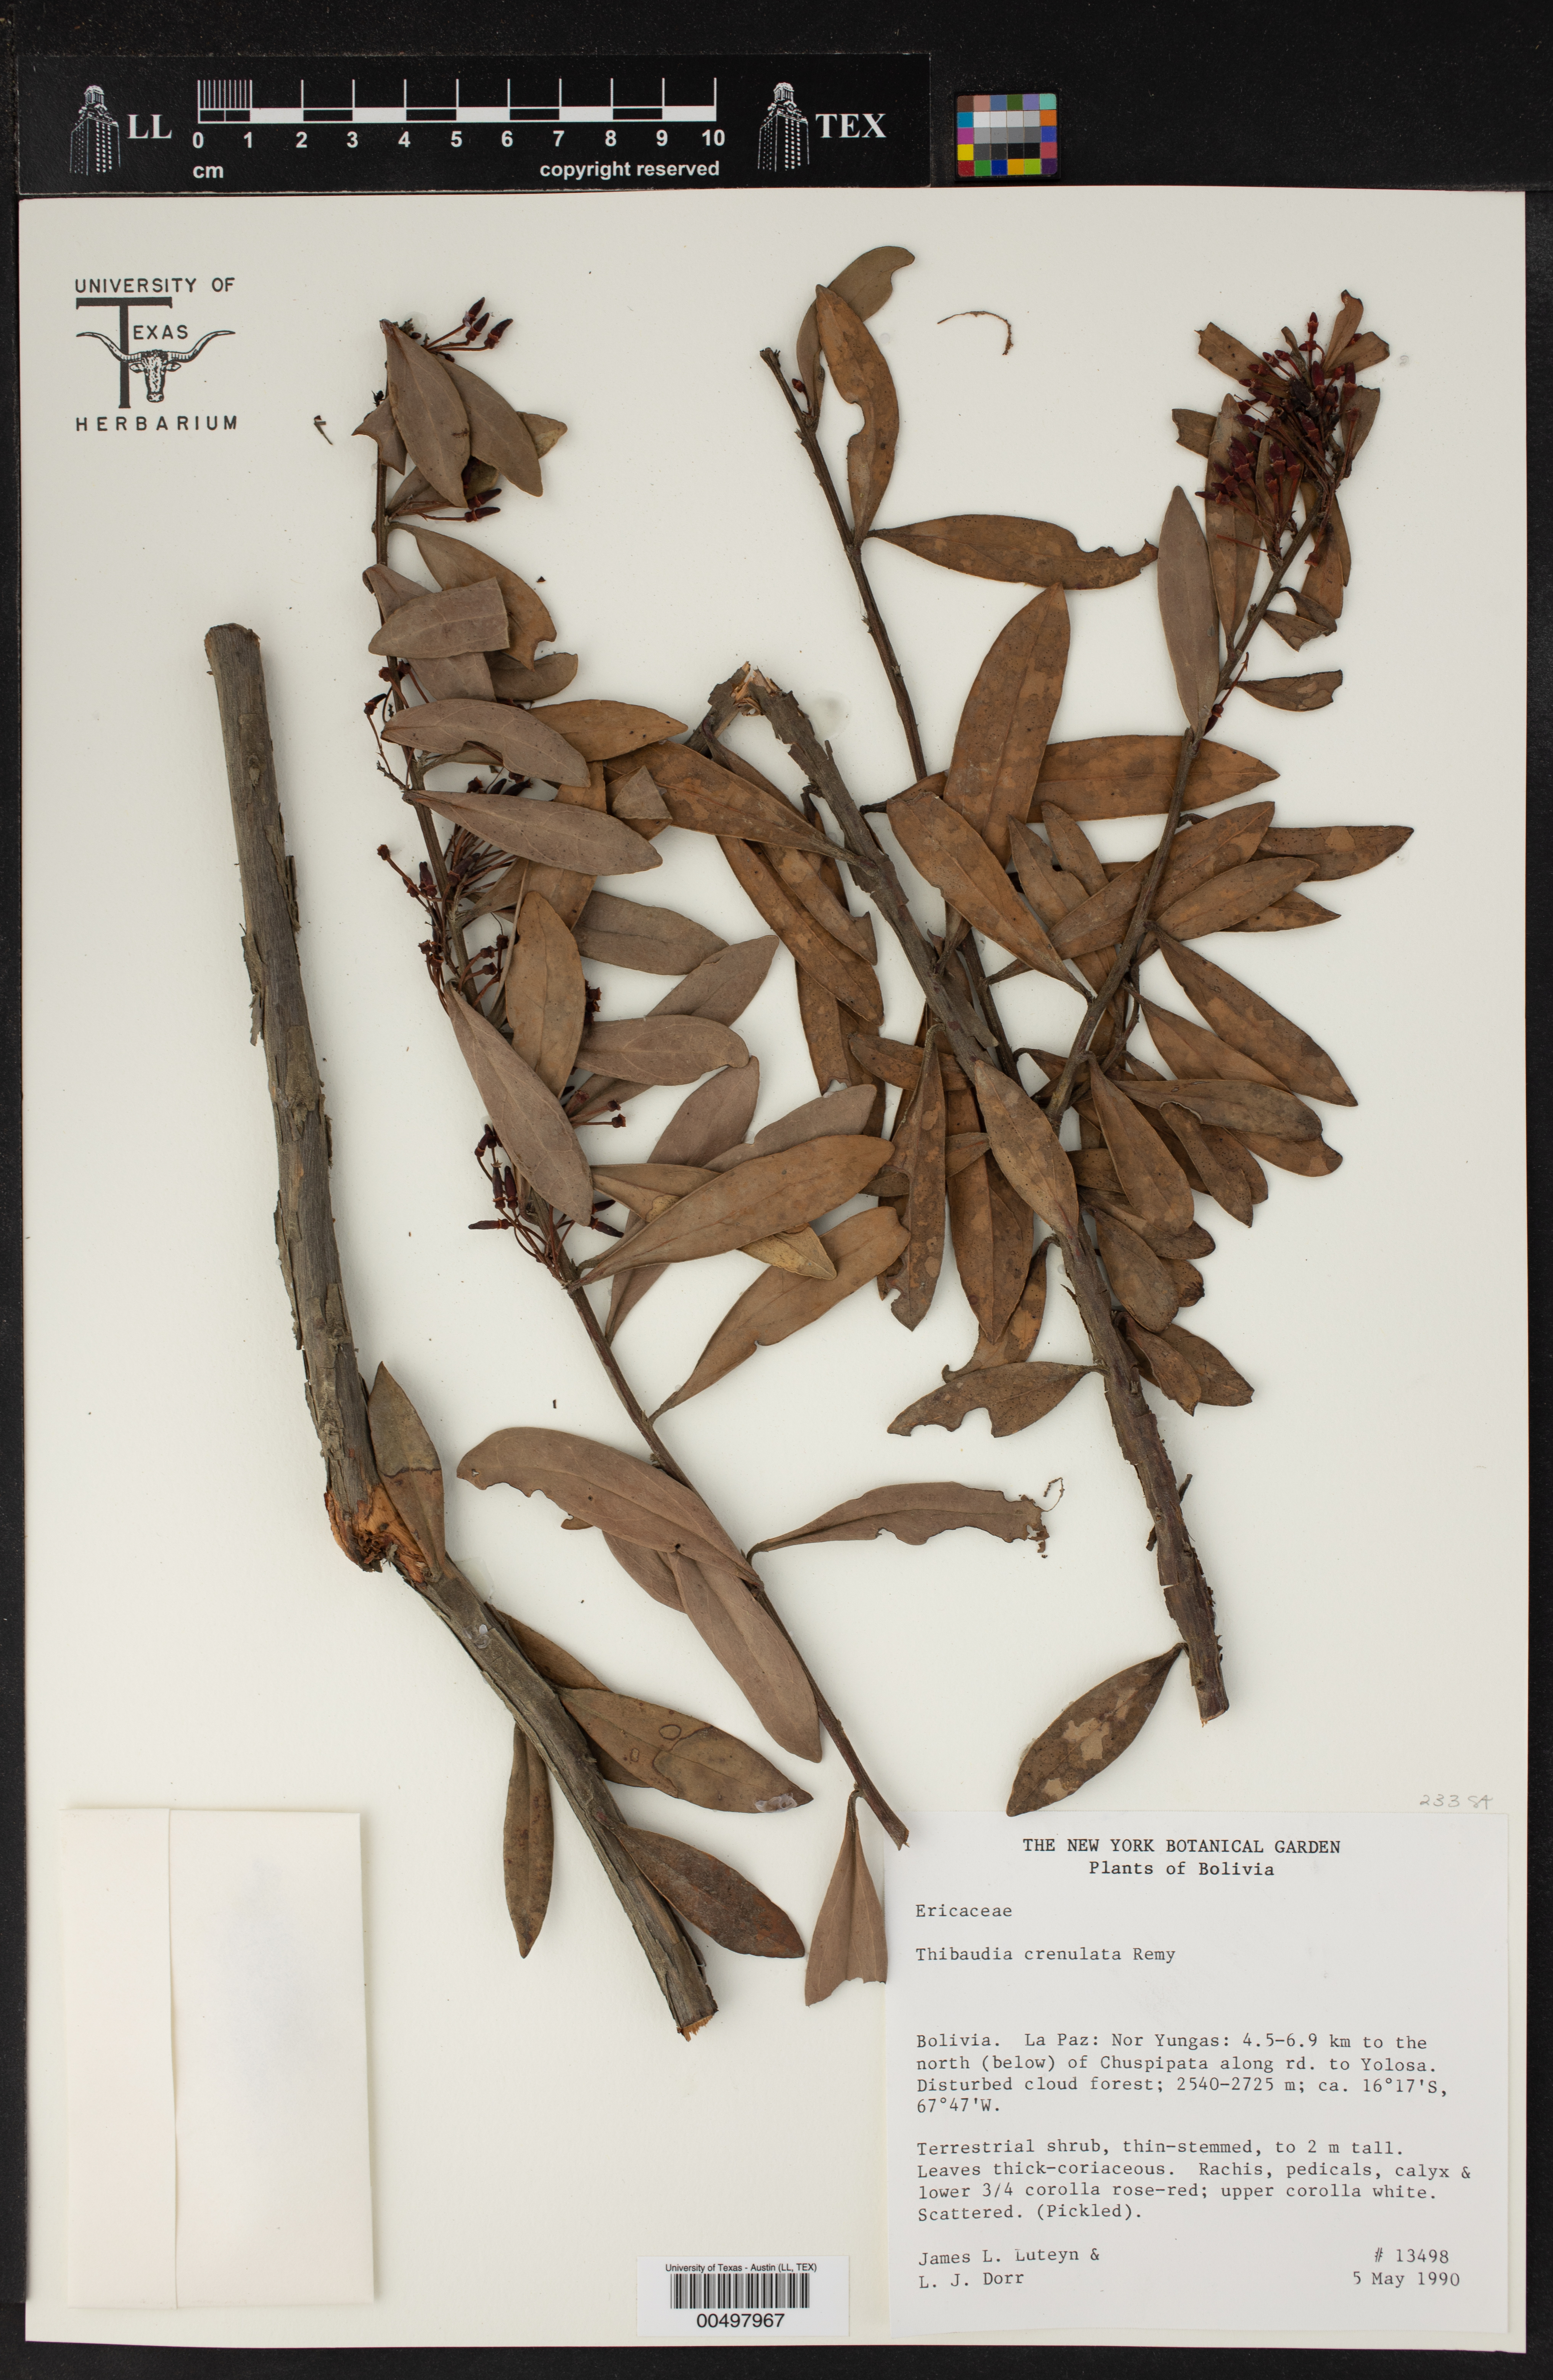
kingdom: Plantae
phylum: Tracheophyta
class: Magnoliopsida
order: Ericales
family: Ericaceae
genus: Thibaudia
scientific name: Thibaudia diphylla
